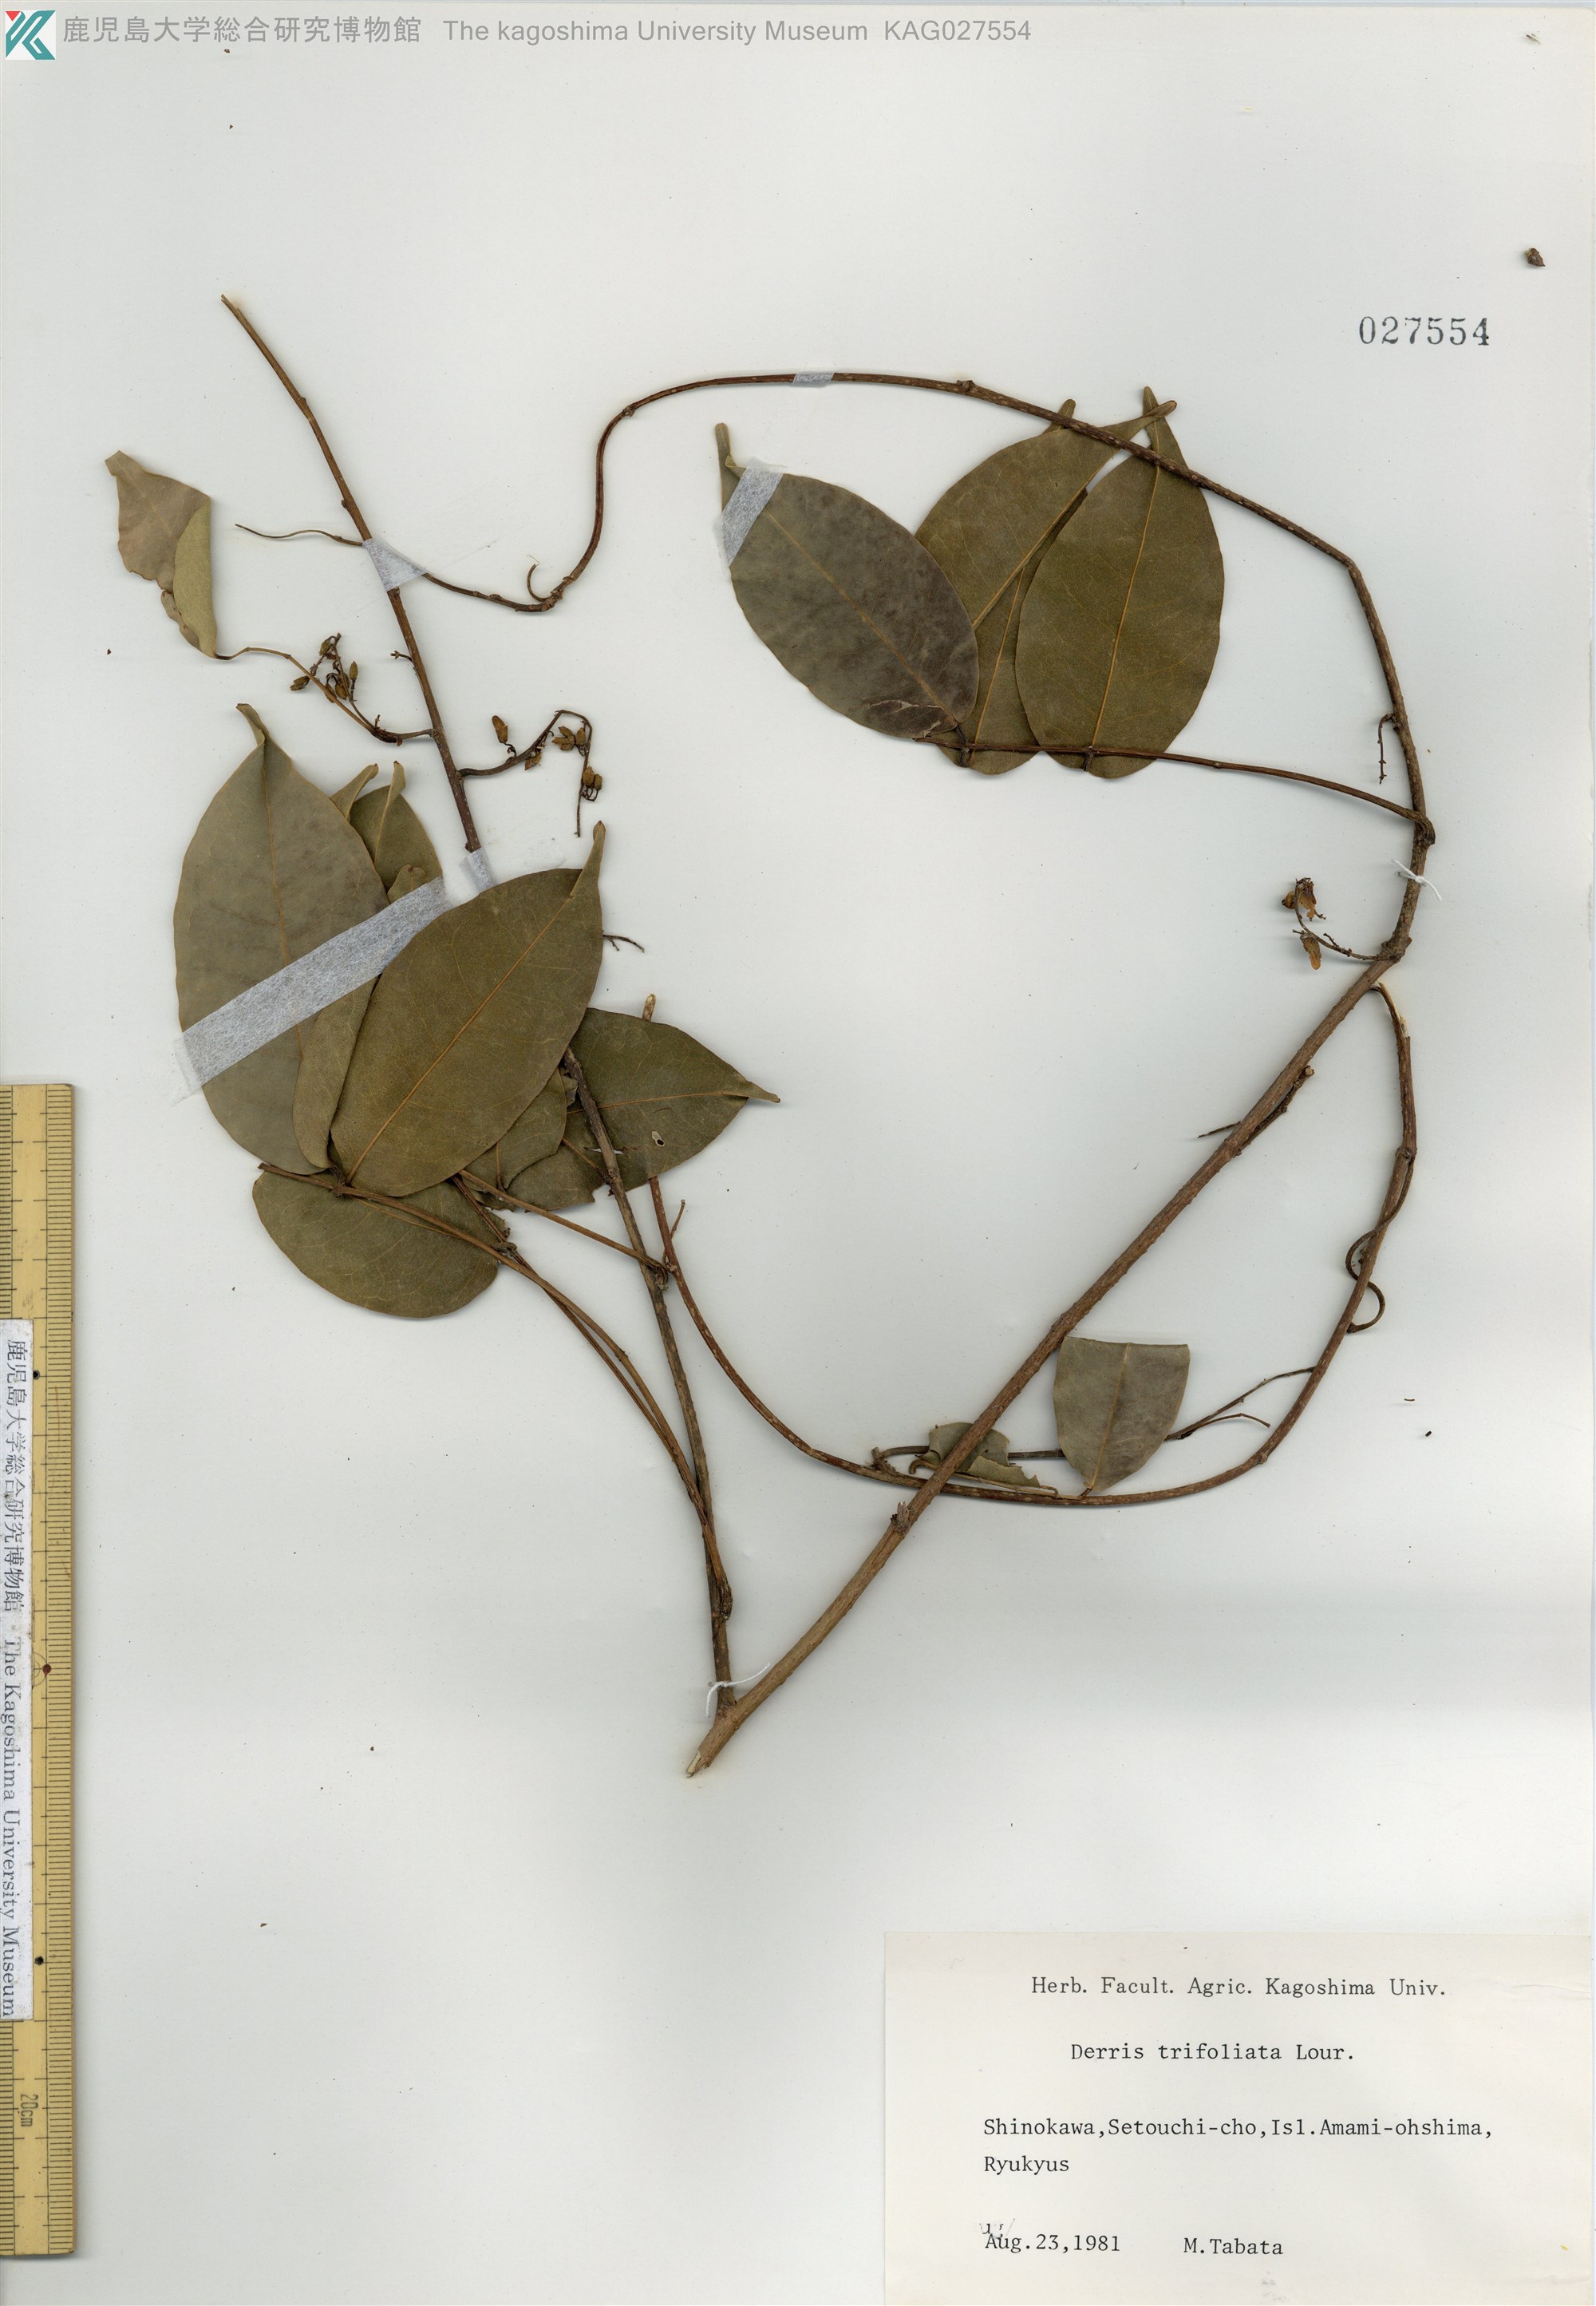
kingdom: Plantae
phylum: Tracheophyta
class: Magnoliopsida
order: Fabales
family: Fabaceae
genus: Derris
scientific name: Derris trifoliata
